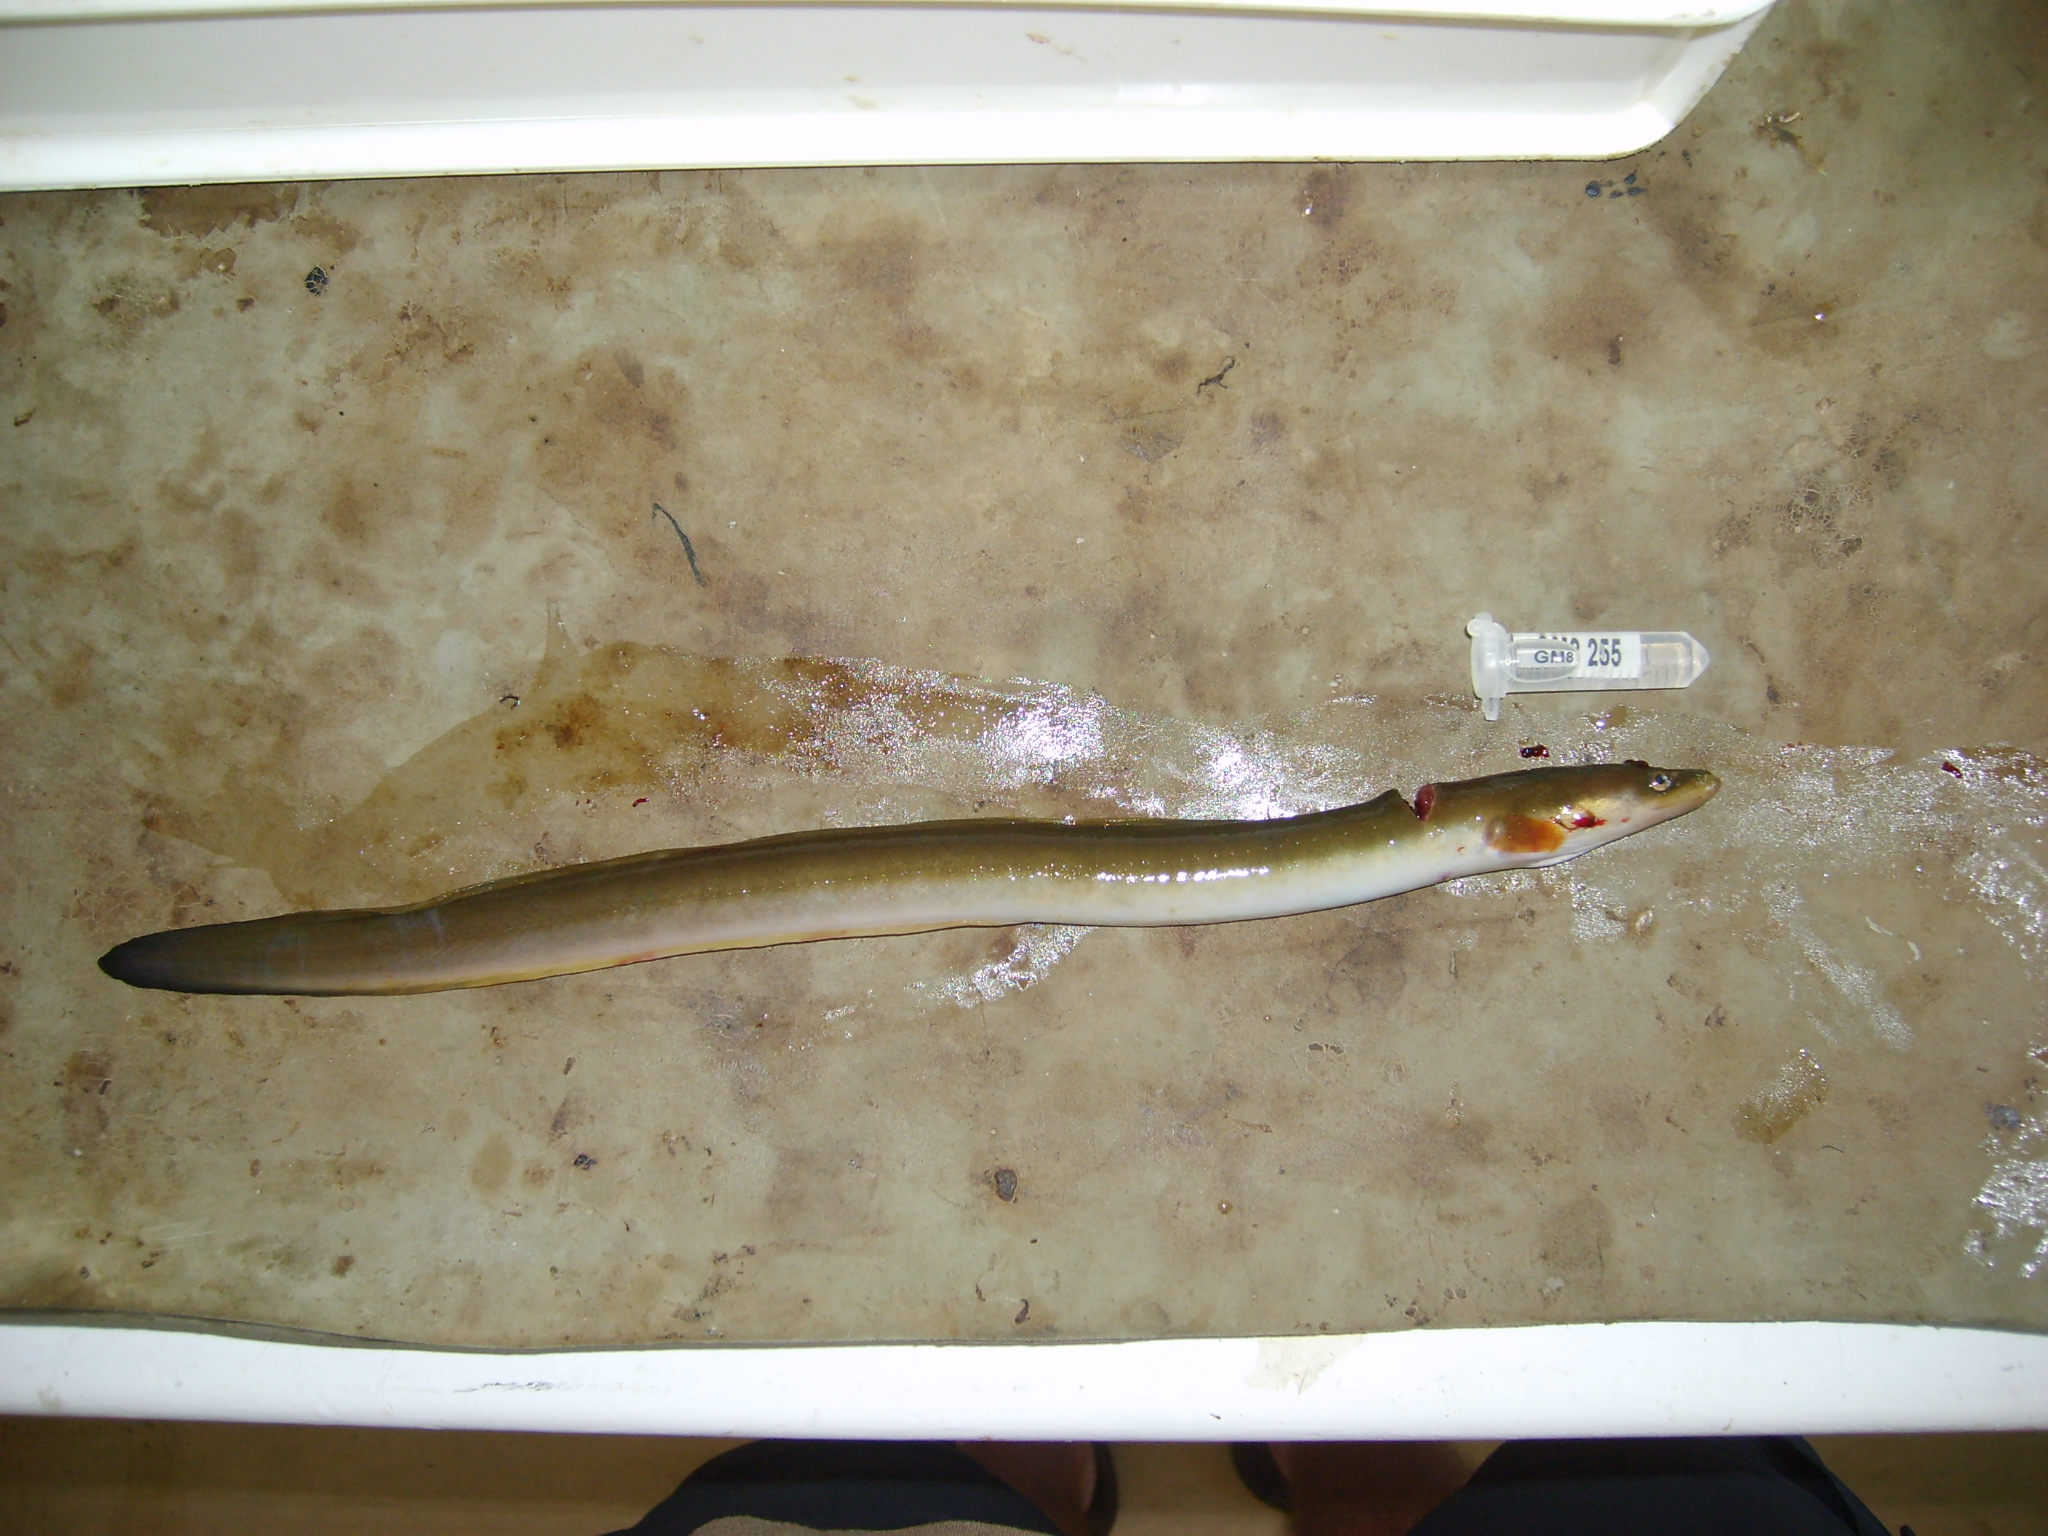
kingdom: Animalia
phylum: Chordata
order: Anguilliformes
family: Anguillidae
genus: Anguilla
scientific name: Anguilla mossambica
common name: African longfin eel
